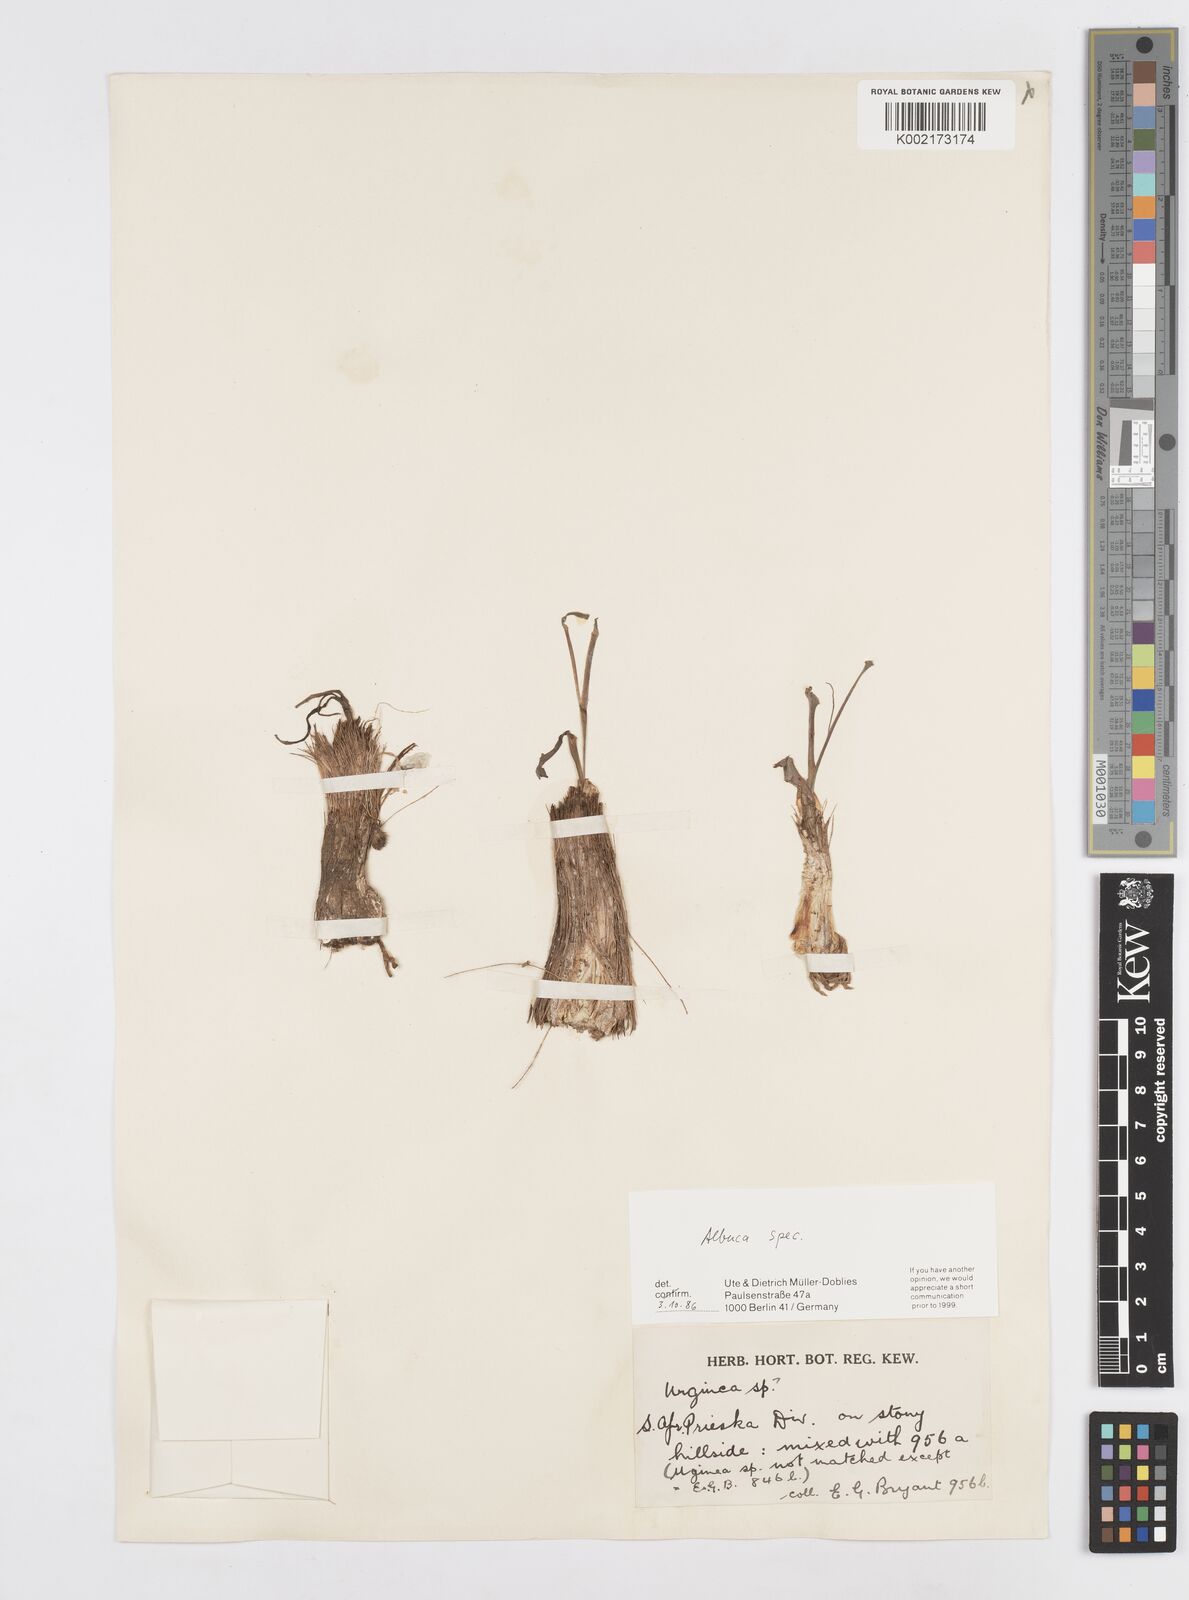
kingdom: Plantae
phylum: Tracheophyta
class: Liliopsida
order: Asparagales
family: Asparagaceae
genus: Albuca
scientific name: Albuca
